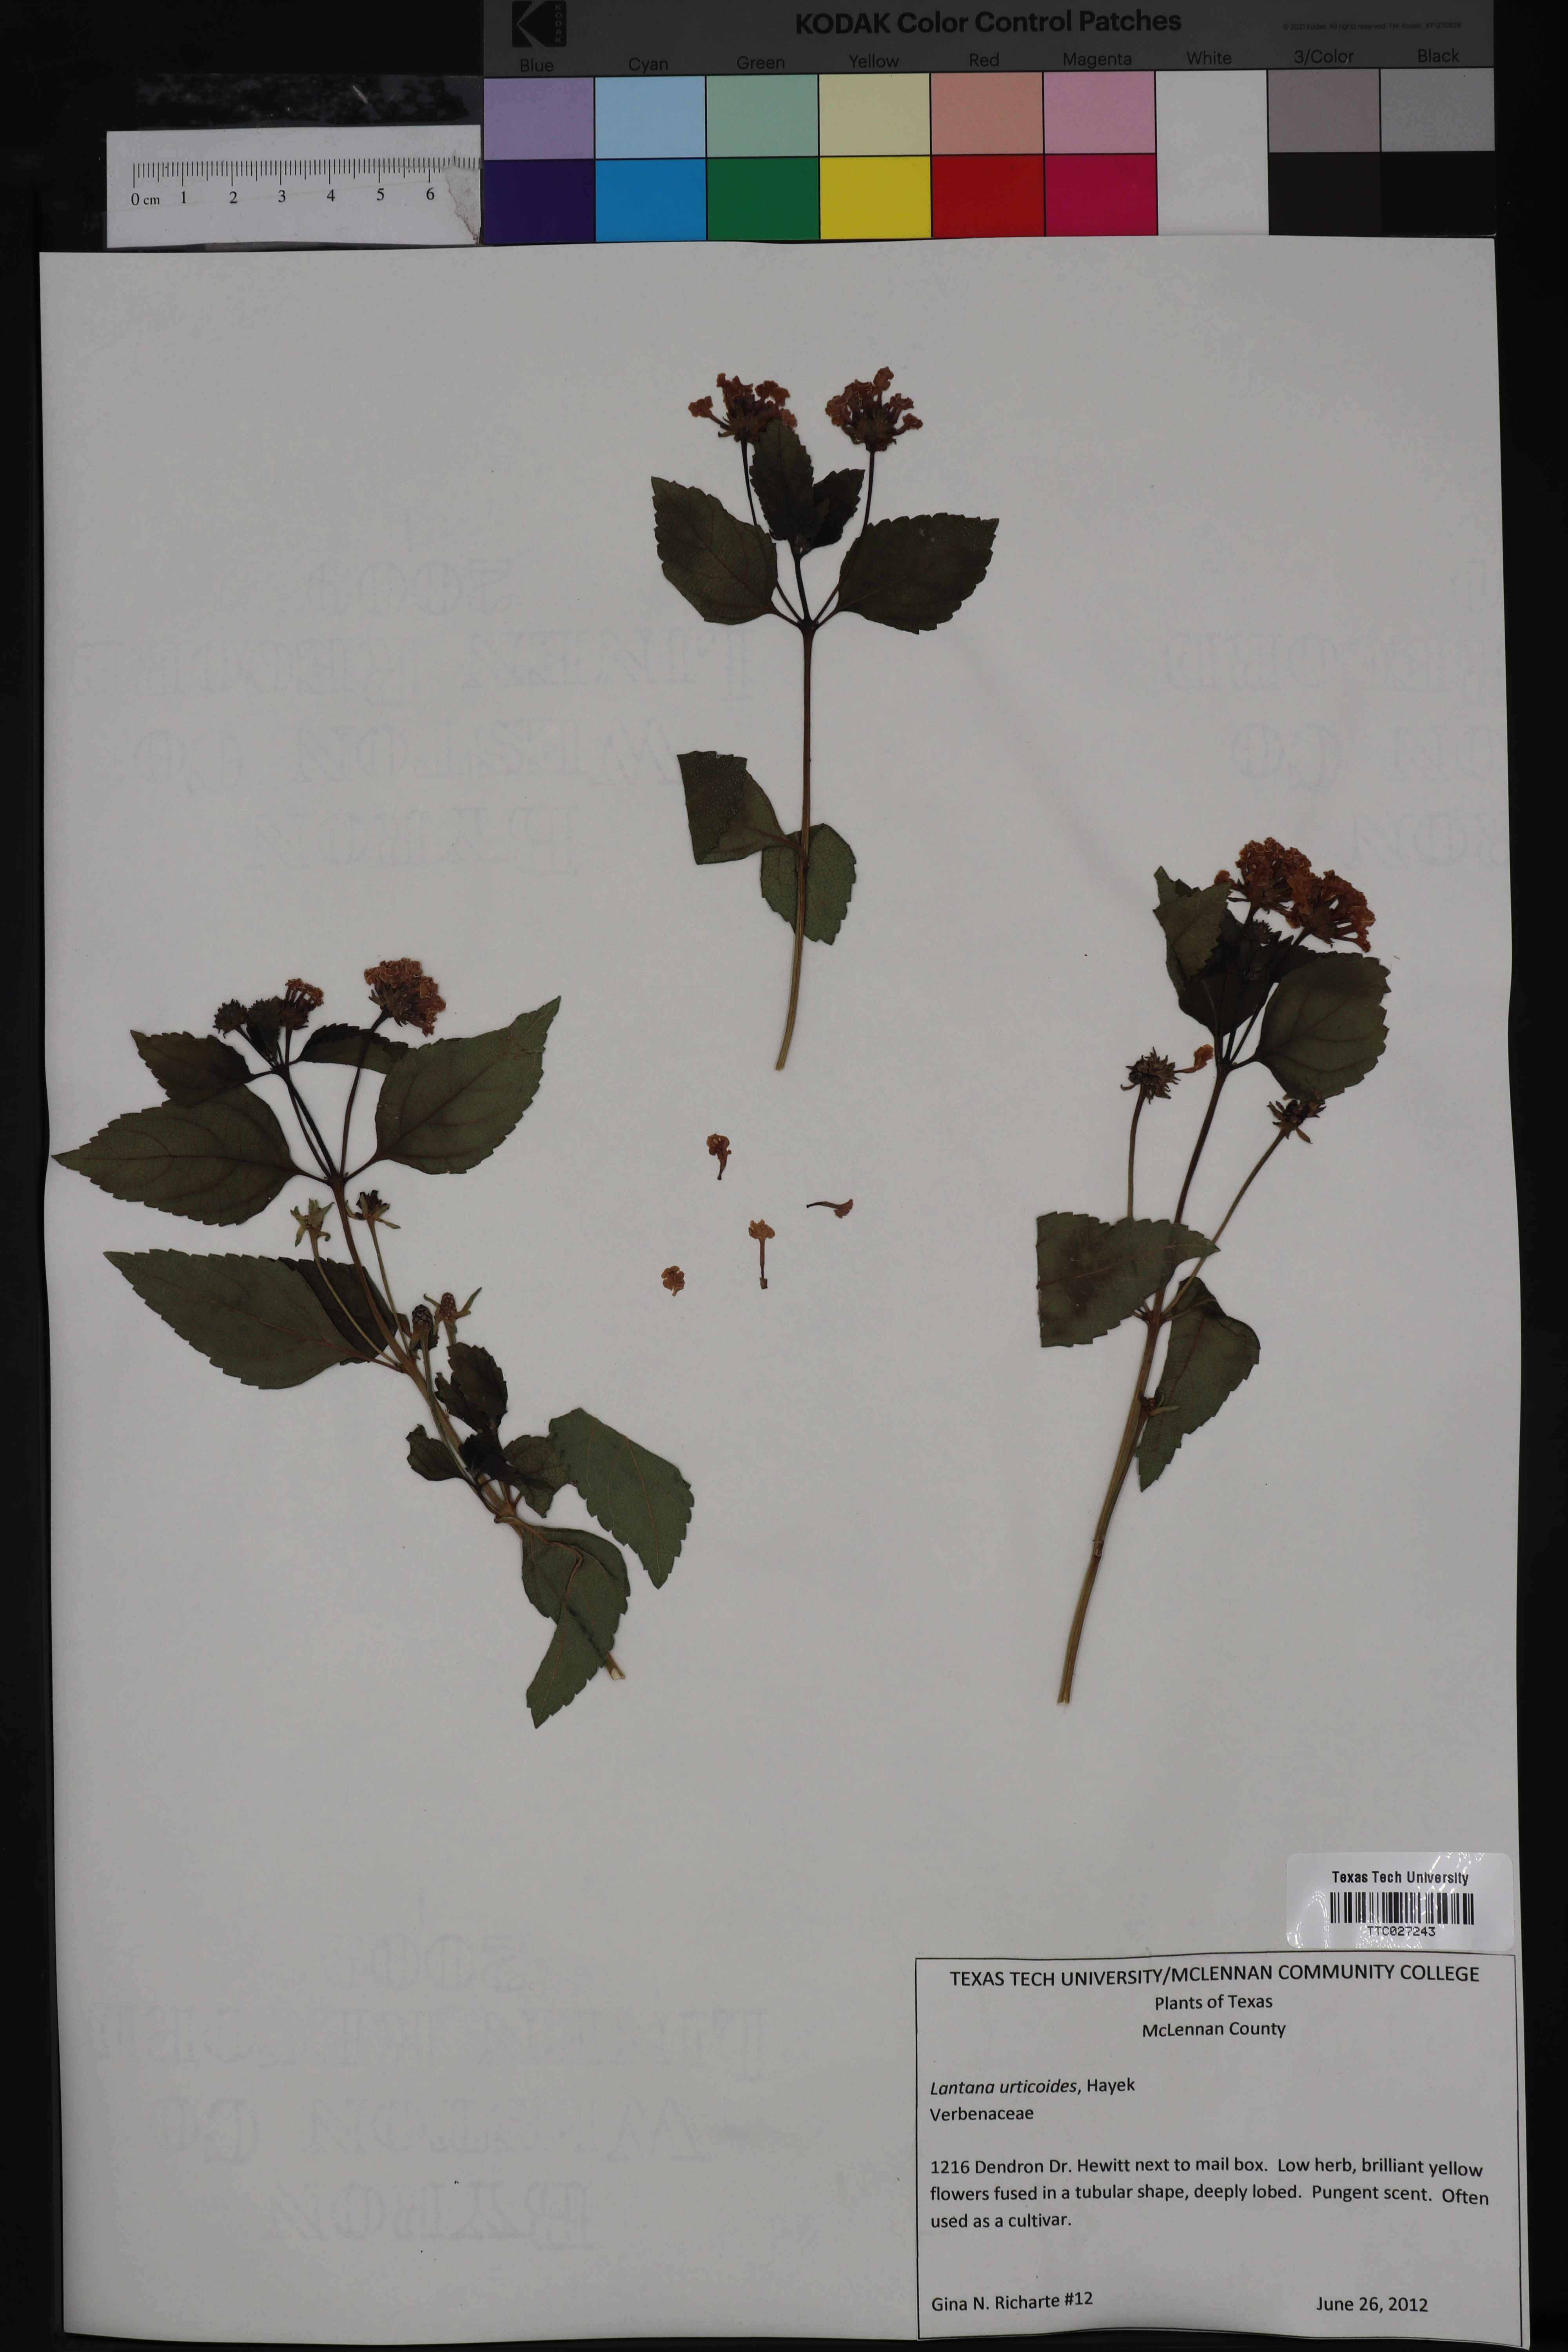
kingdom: Plantae
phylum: Tracheophyta
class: Magnoliopsida
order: Lamiales
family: Verbenaceae
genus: Lantana
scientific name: Lantana urticoides
